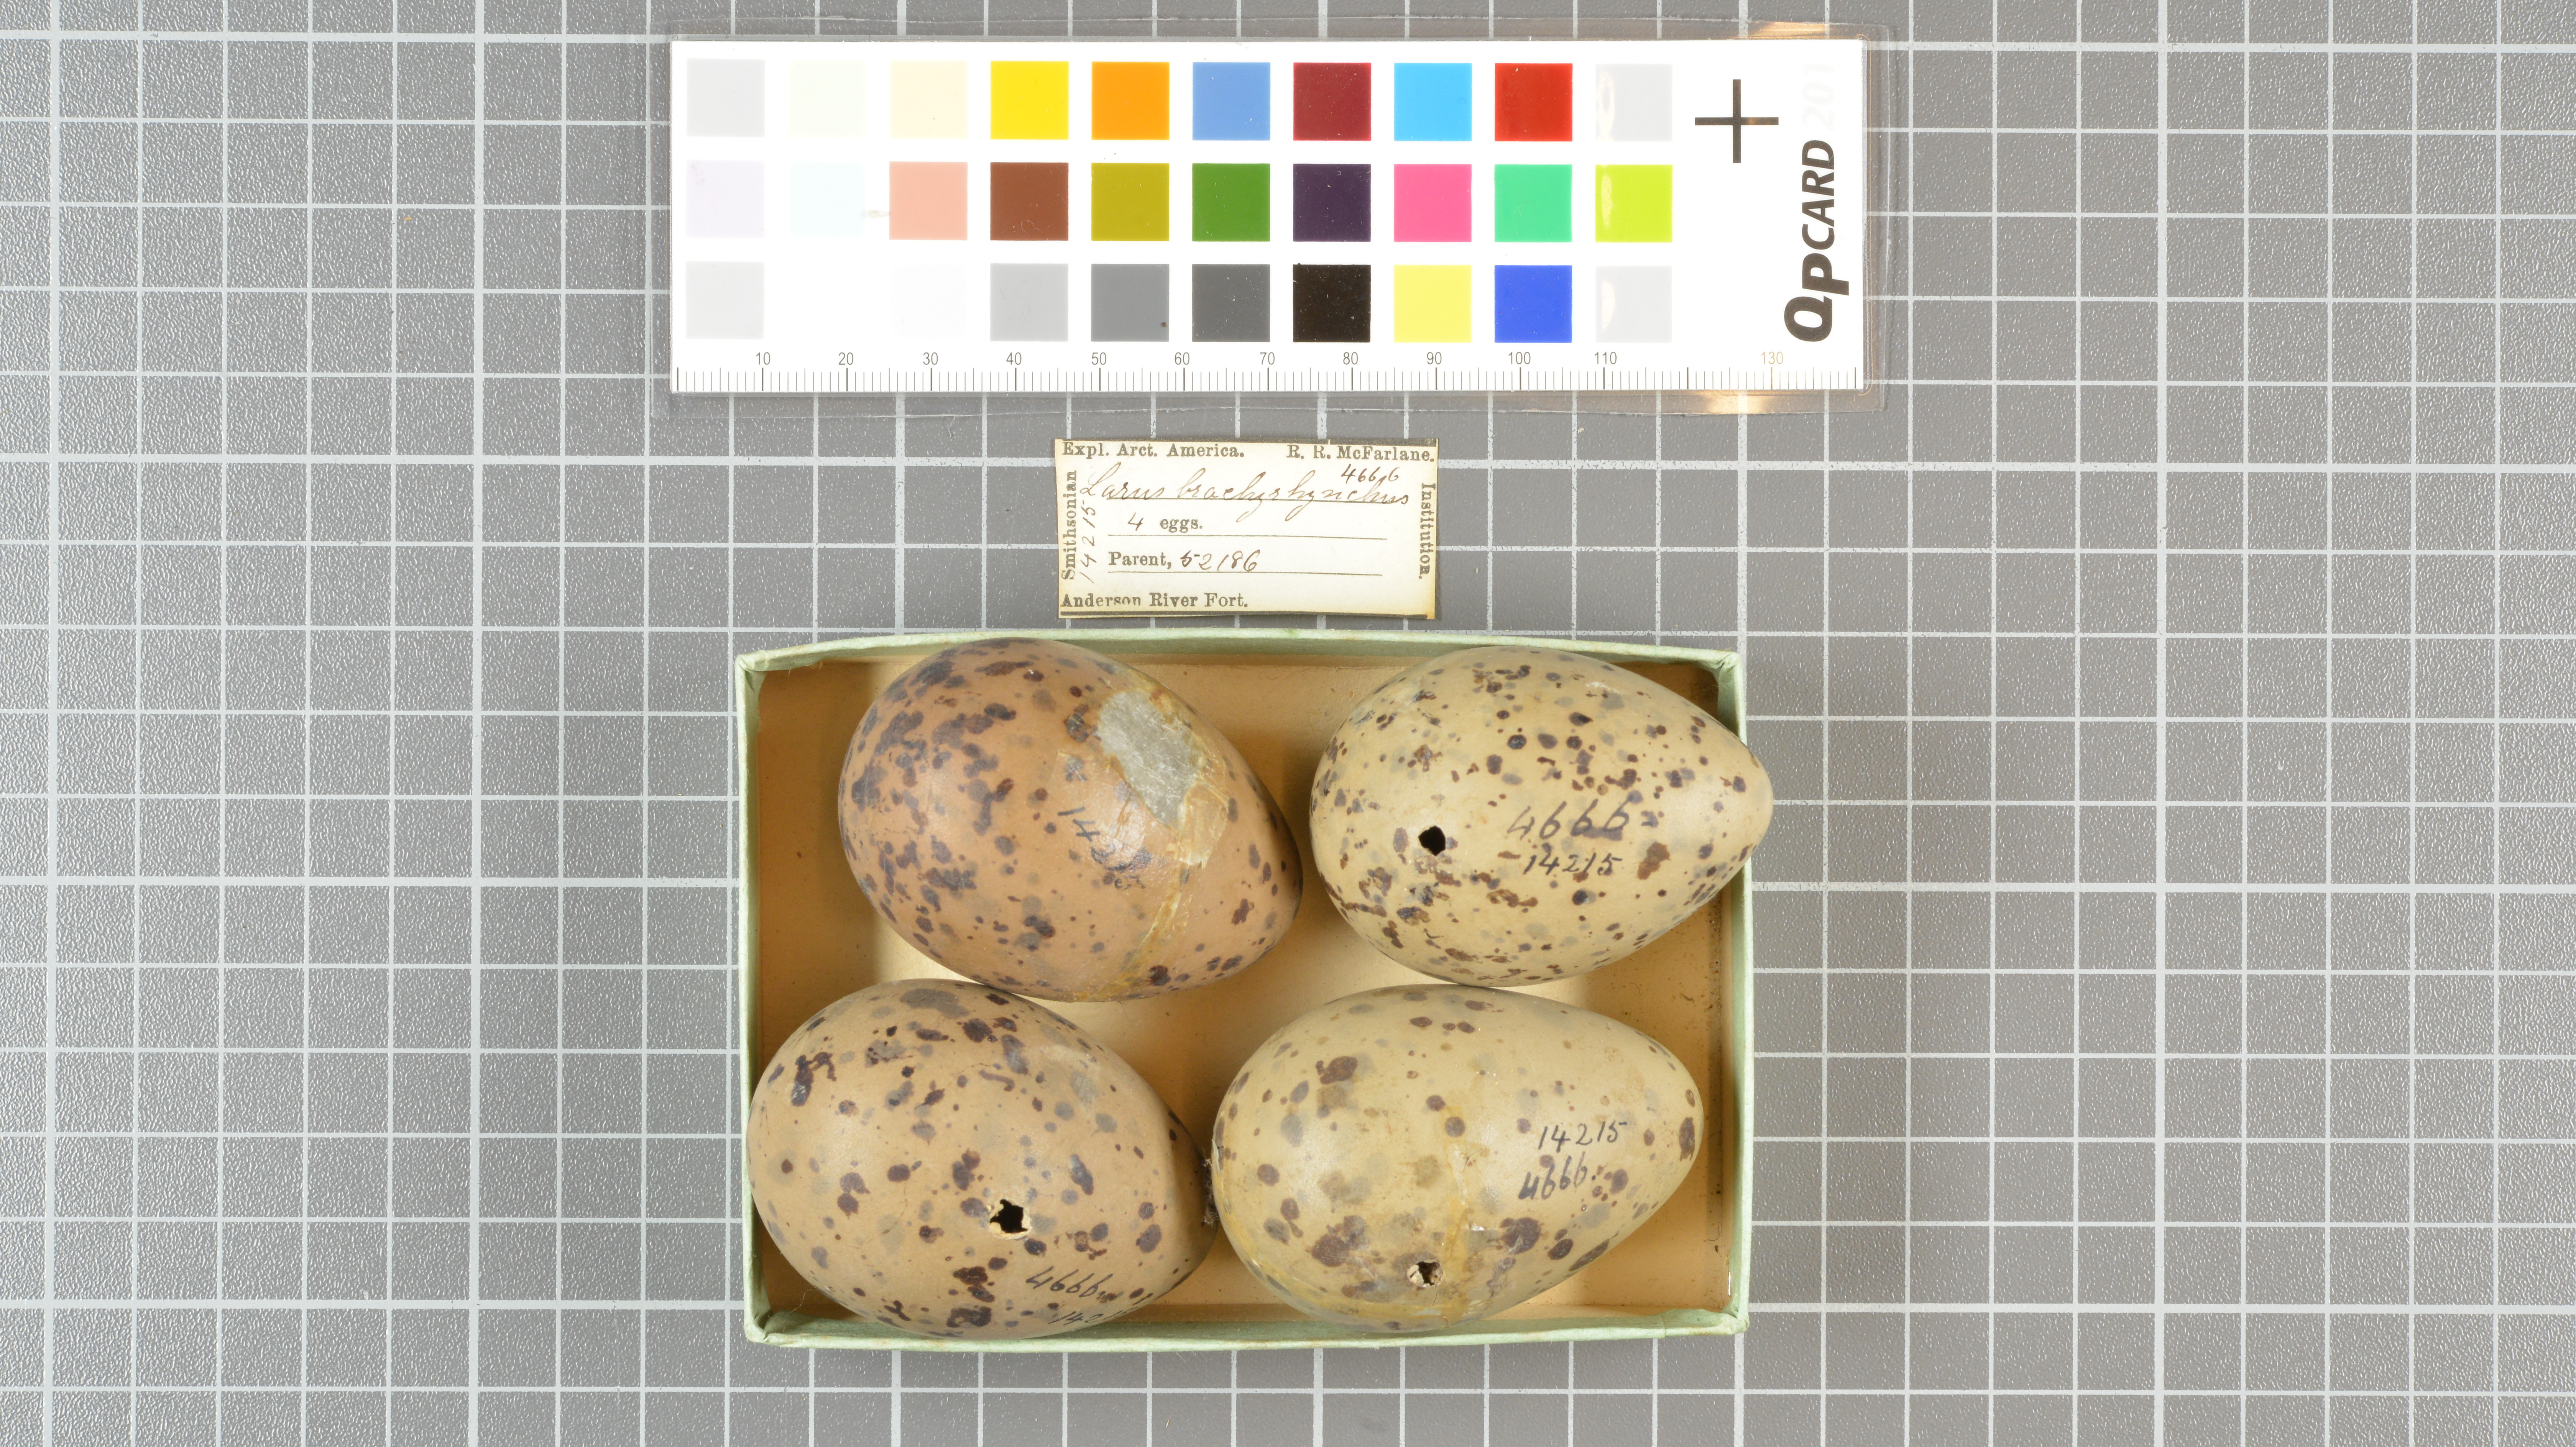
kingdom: Animalia
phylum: Chordata
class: Aves
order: Charadriiformes
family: Laridae
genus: Larus
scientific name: Larus brachyrhynchus
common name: Short-billed gull
